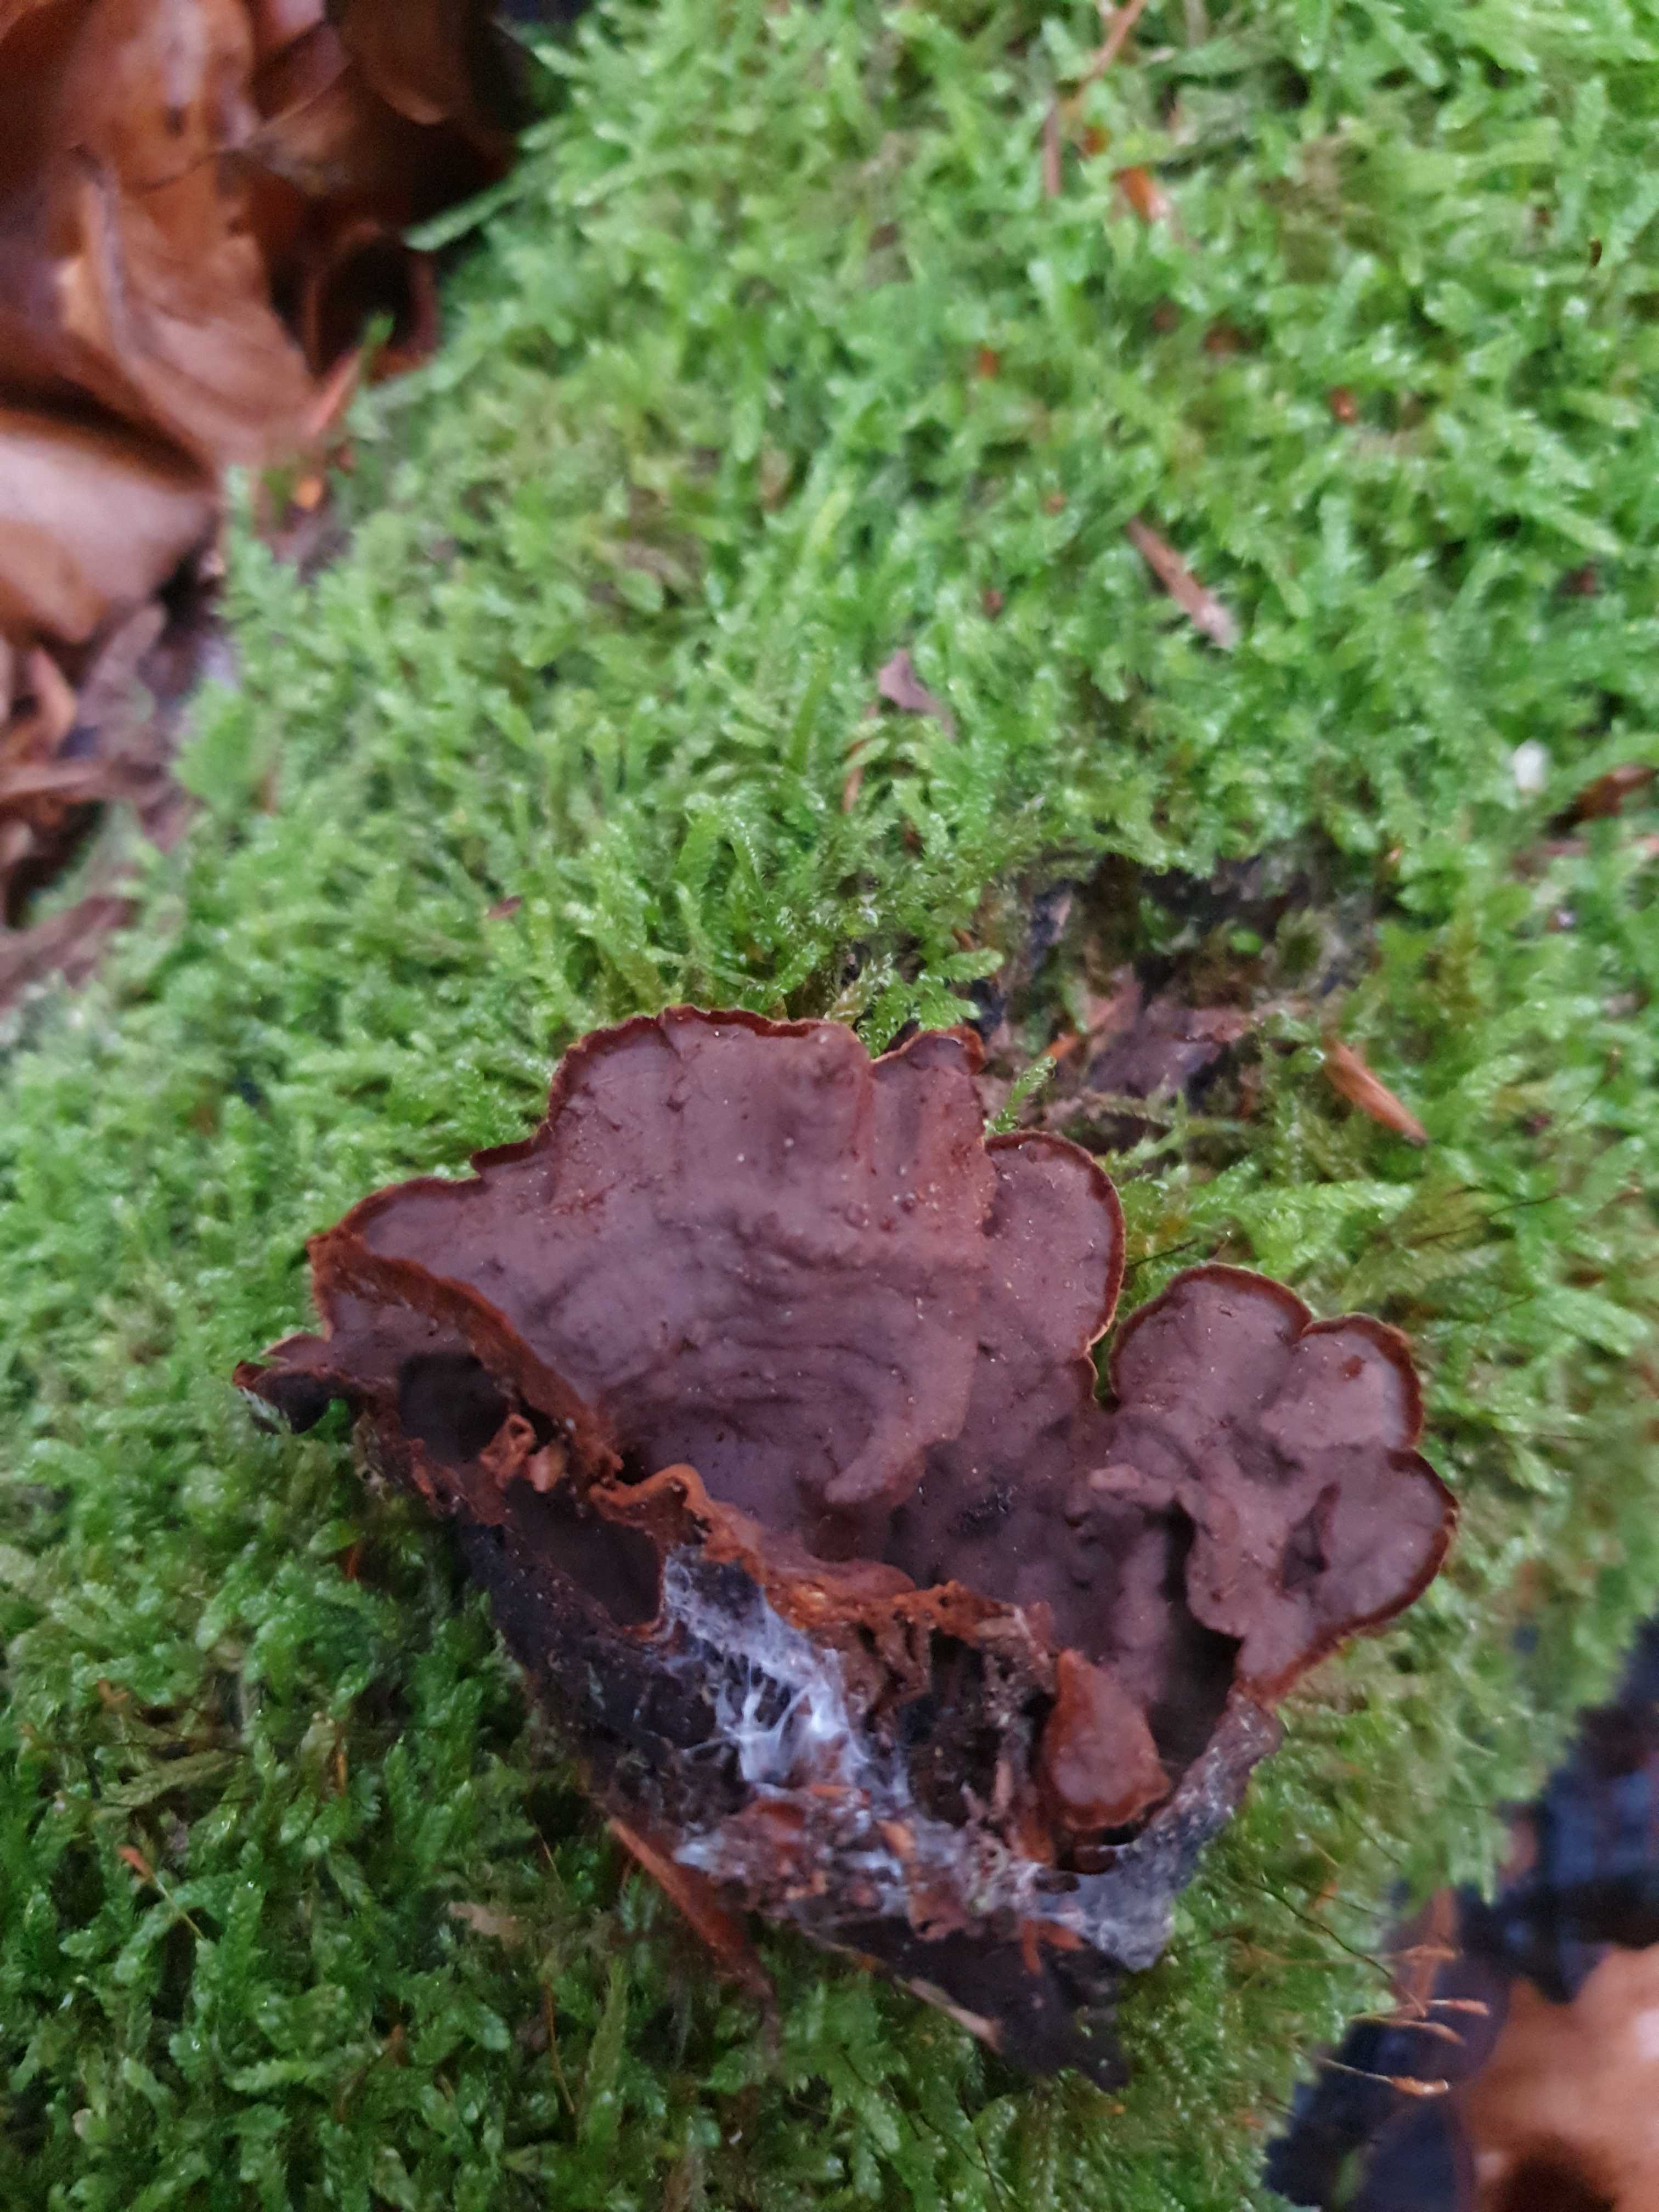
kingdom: Fungi
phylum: Basidiomycota
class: Agaricomycetes
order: Hymenochaetales
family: Hymenochaetaceae
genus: Hymenochaete
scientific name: Hymenochaete rubiginosa
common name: stiv ruslædersvamp
